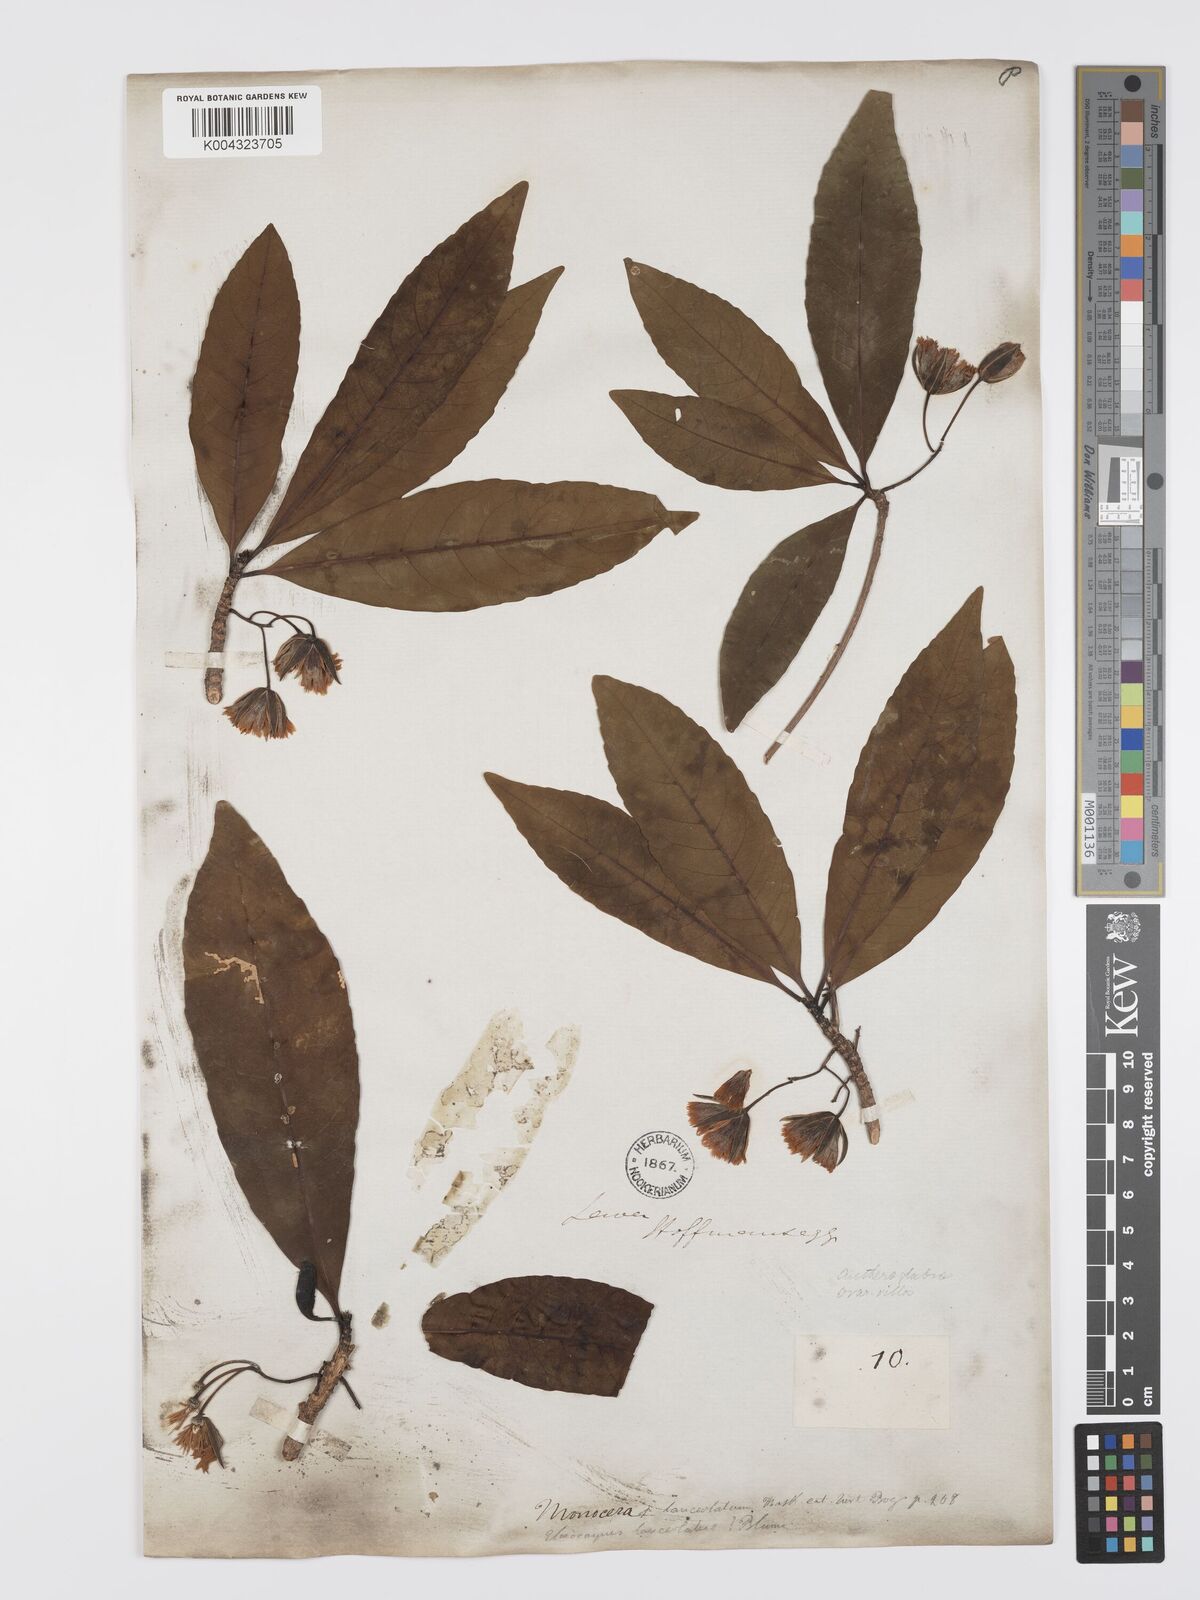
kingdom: Plantae
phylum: Tracheophyta
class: Magnoliopsida
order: Oxalidales
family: Elaeocarpaceae
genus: Elaeocarpus
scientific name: Elaeocarpus grandiflorus
